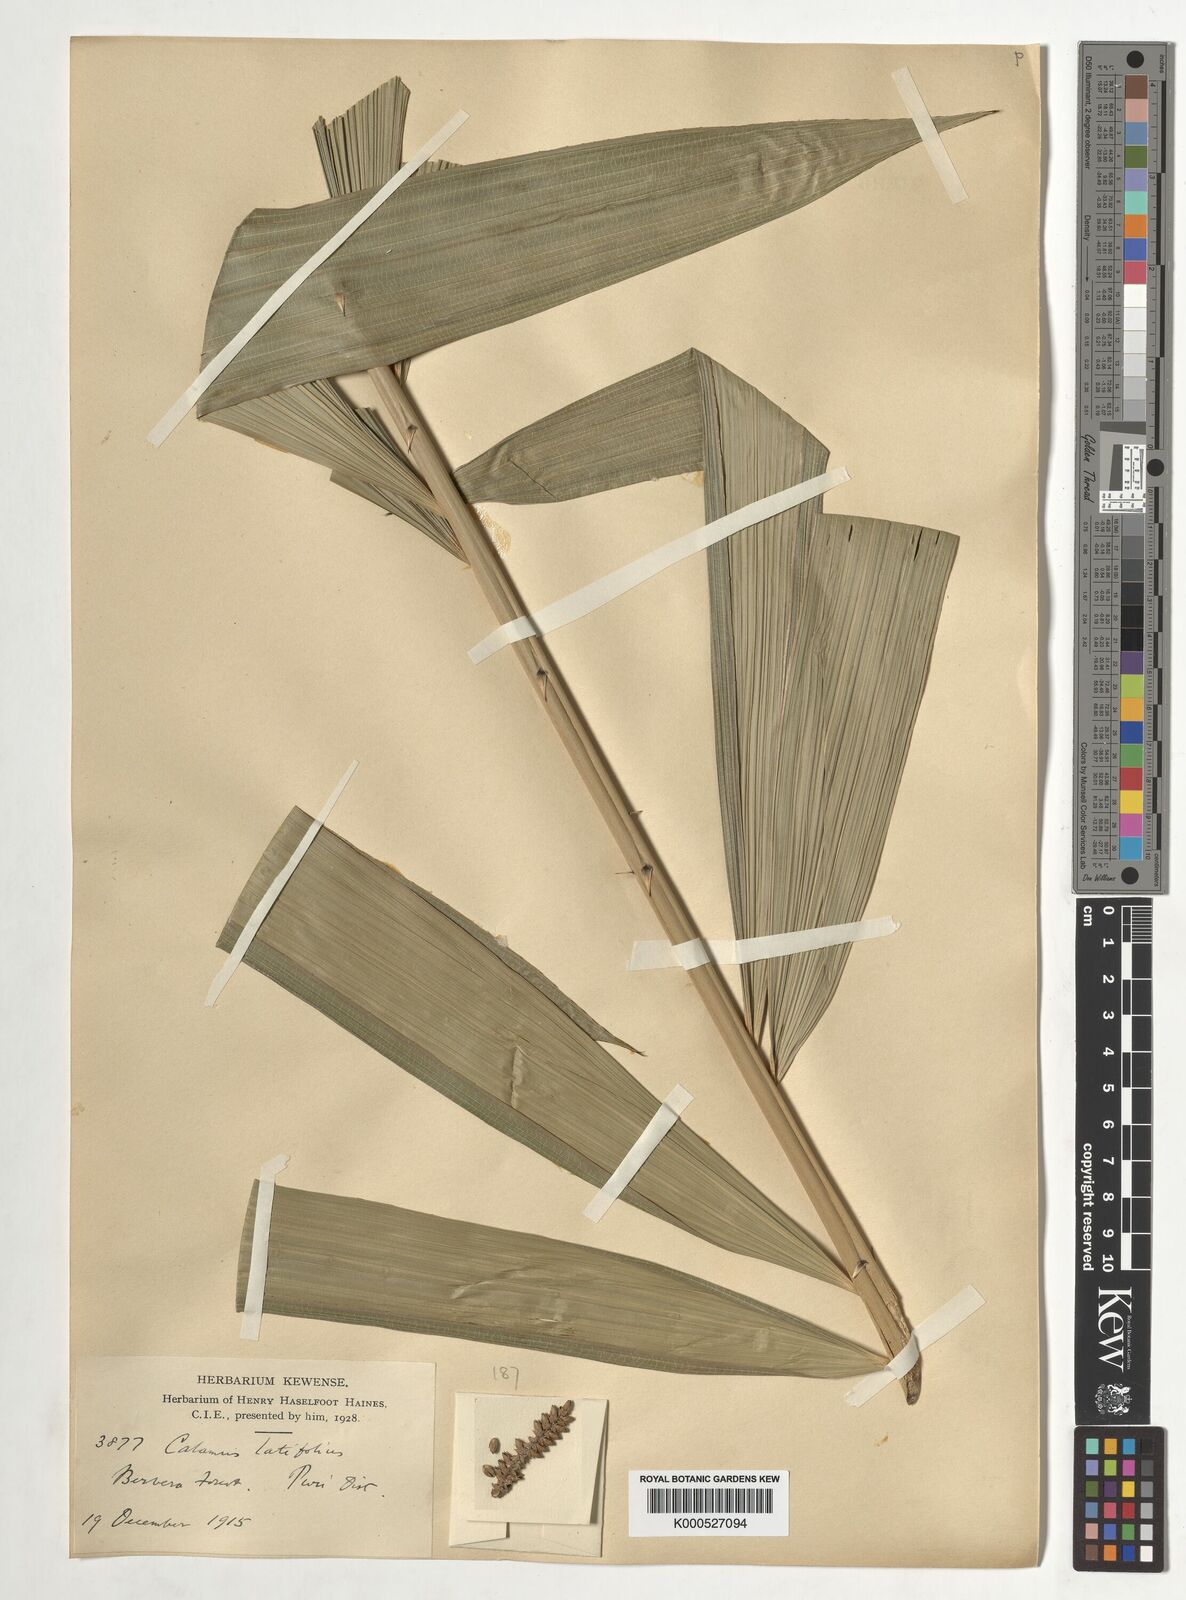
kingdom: Plantae
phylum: Tracheophyta
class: Liliopsida
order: Arecales
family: Arecaceae
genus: Calamus
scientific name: Calamus latifolius
